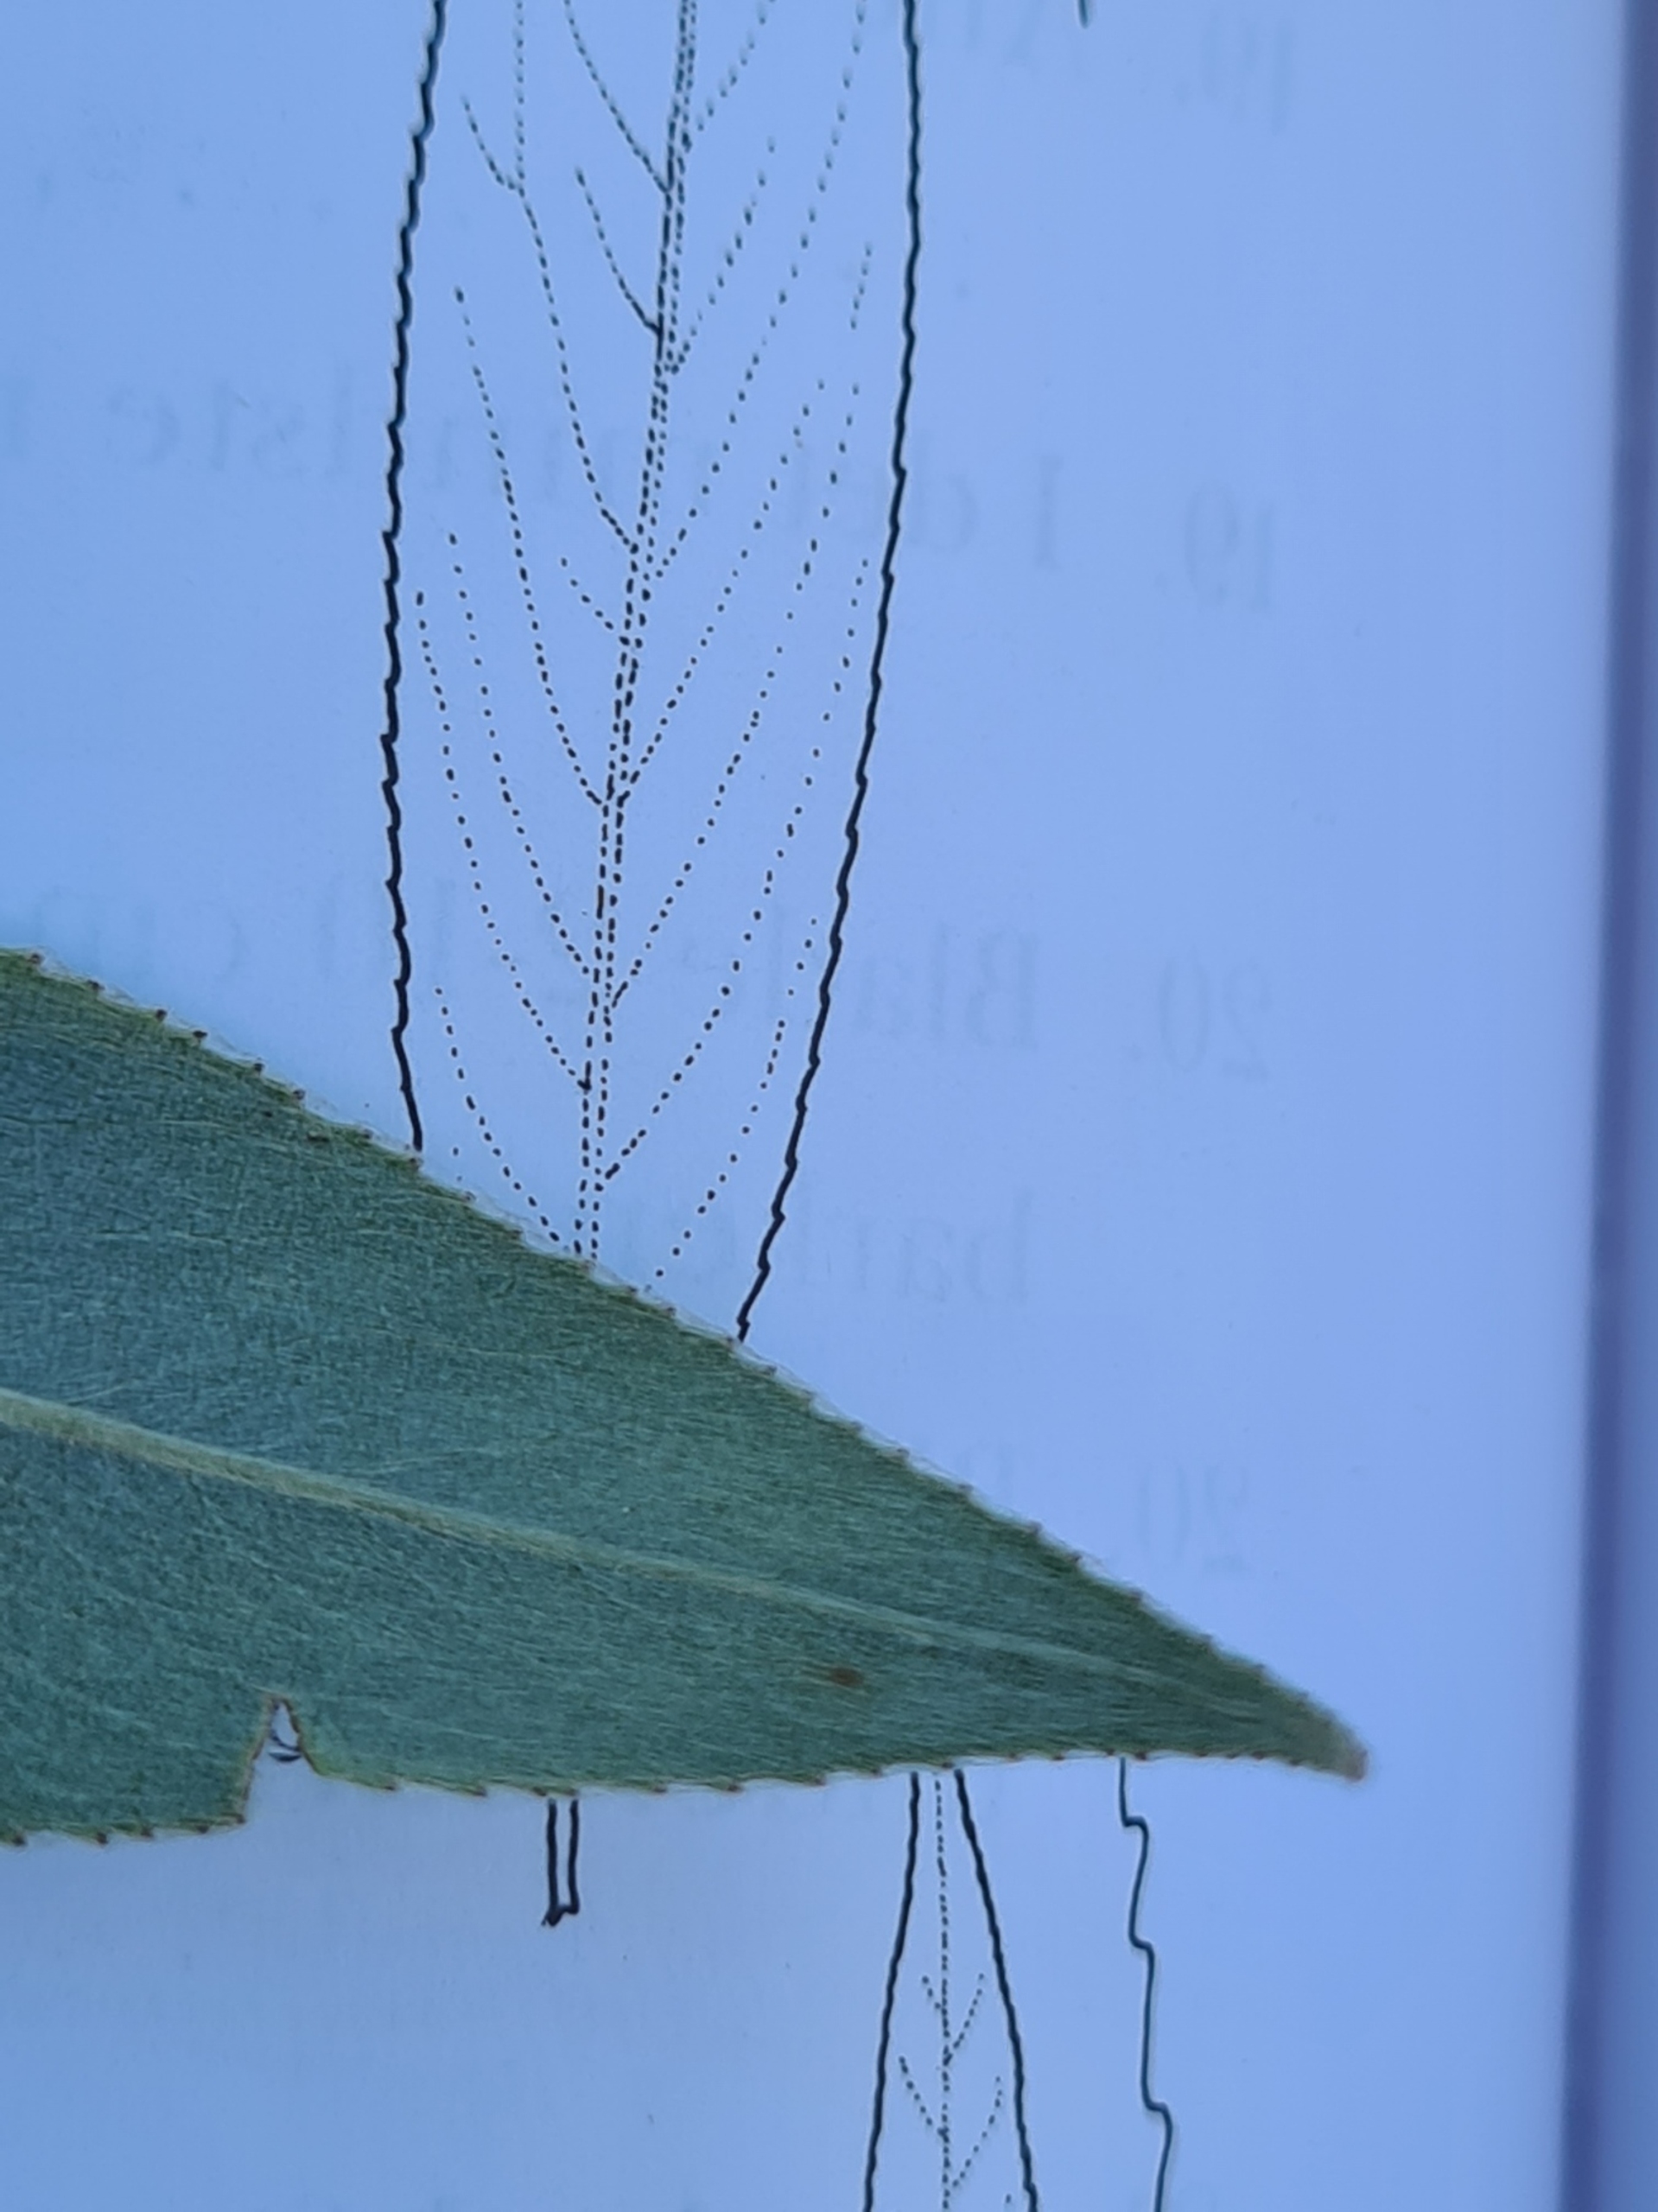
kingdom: Plantae
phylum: Tracheophyta
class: Magnoliopsida
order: Malpighiales
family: Salicaceae
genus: Salix
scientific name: Salix alba
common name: Hvid-pil
